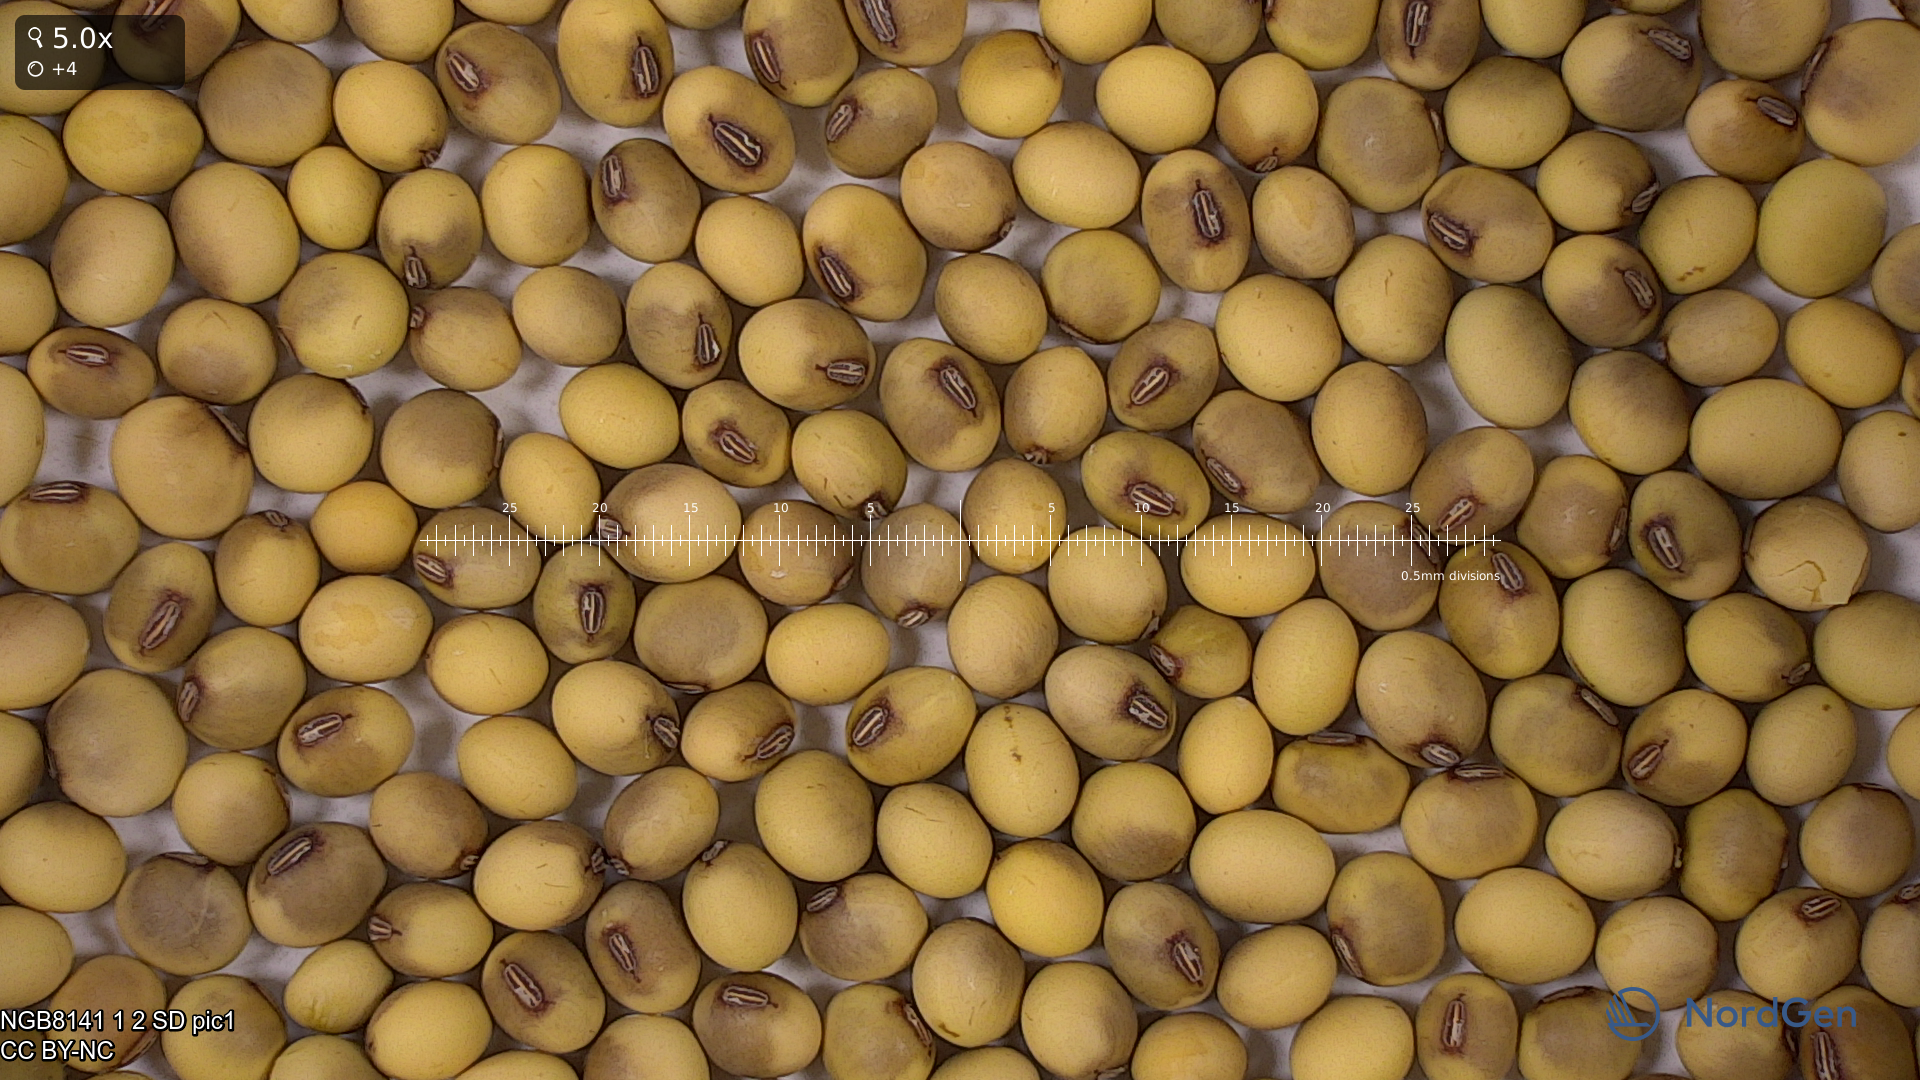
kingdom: Plantae
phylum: Tracheophyta
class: Magnoliopsida
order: Fabales
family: Fabaceae
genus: Glycine
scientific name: Glycine max
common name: Soya-bean
